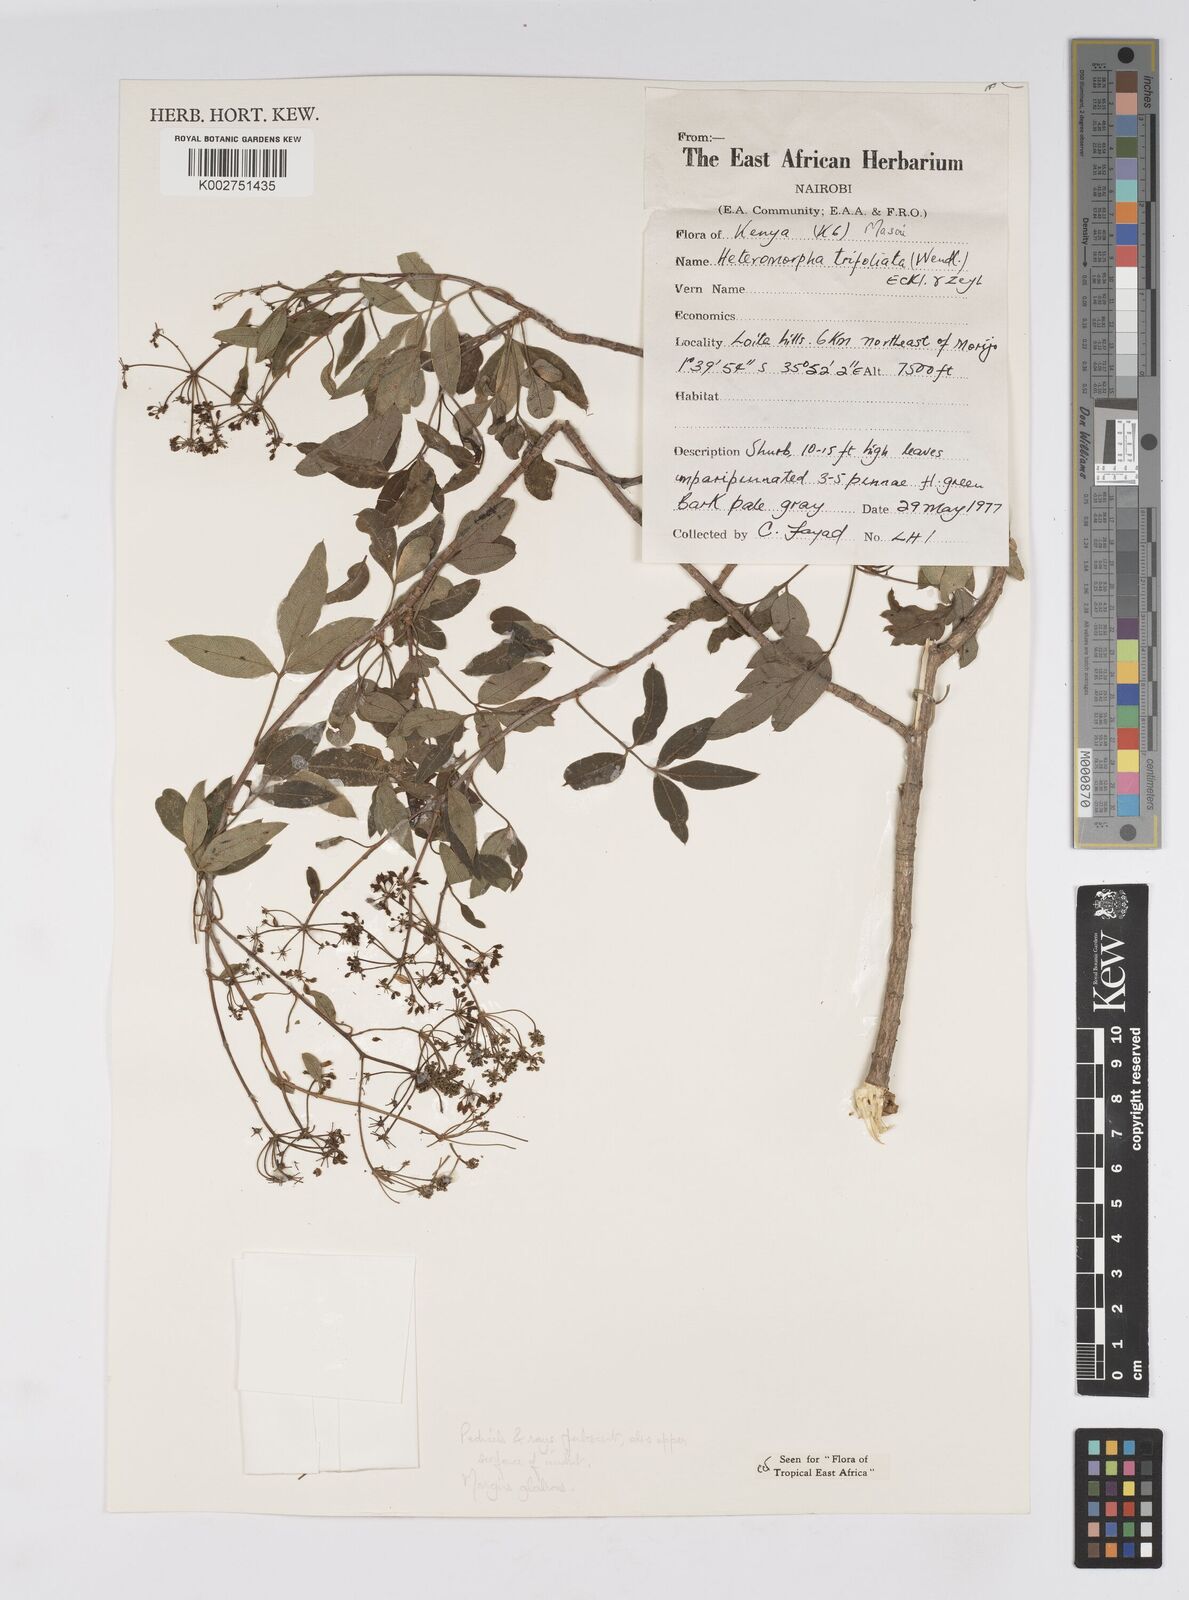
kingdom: Plantae
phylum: Tracheophyta
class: Magnoliopsida
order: Apiales
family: Apiaceae
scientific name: Apiaceae
